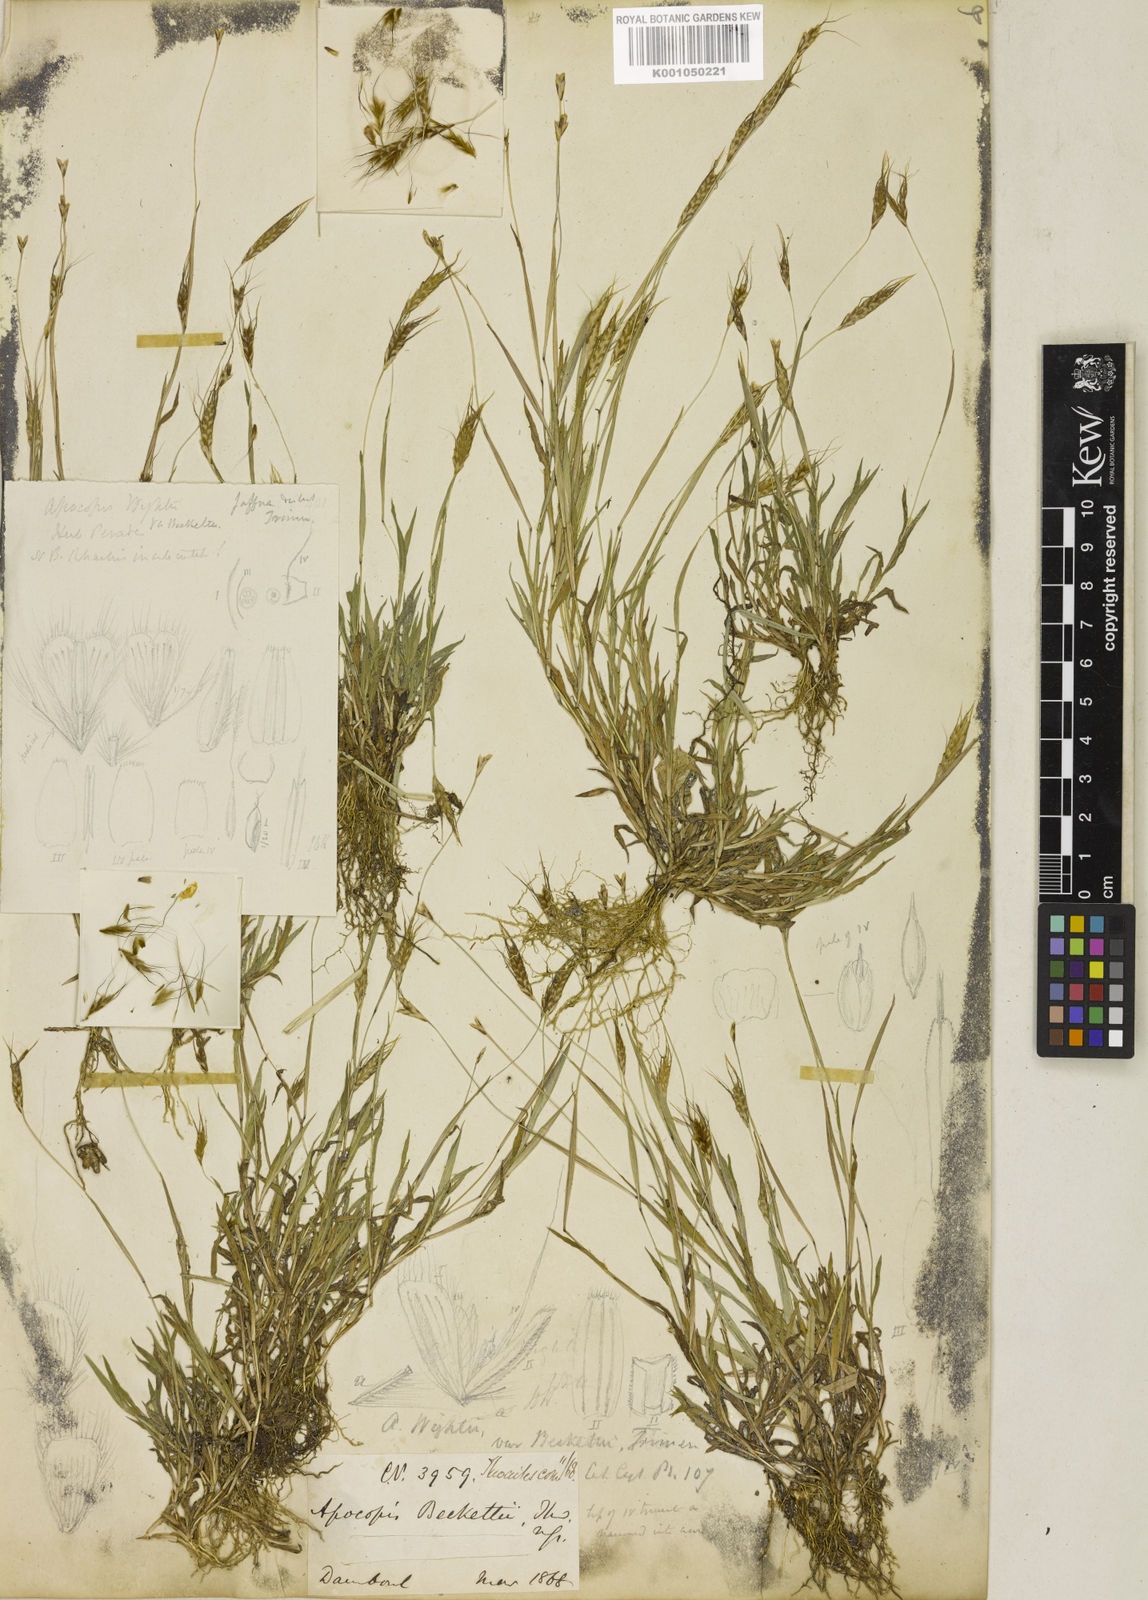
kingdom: Plantae
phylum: Tracheophyta
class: Liliopsida
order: Poales
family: Poaceae
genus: Apocopis
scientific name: Apocopis mangalorensis
